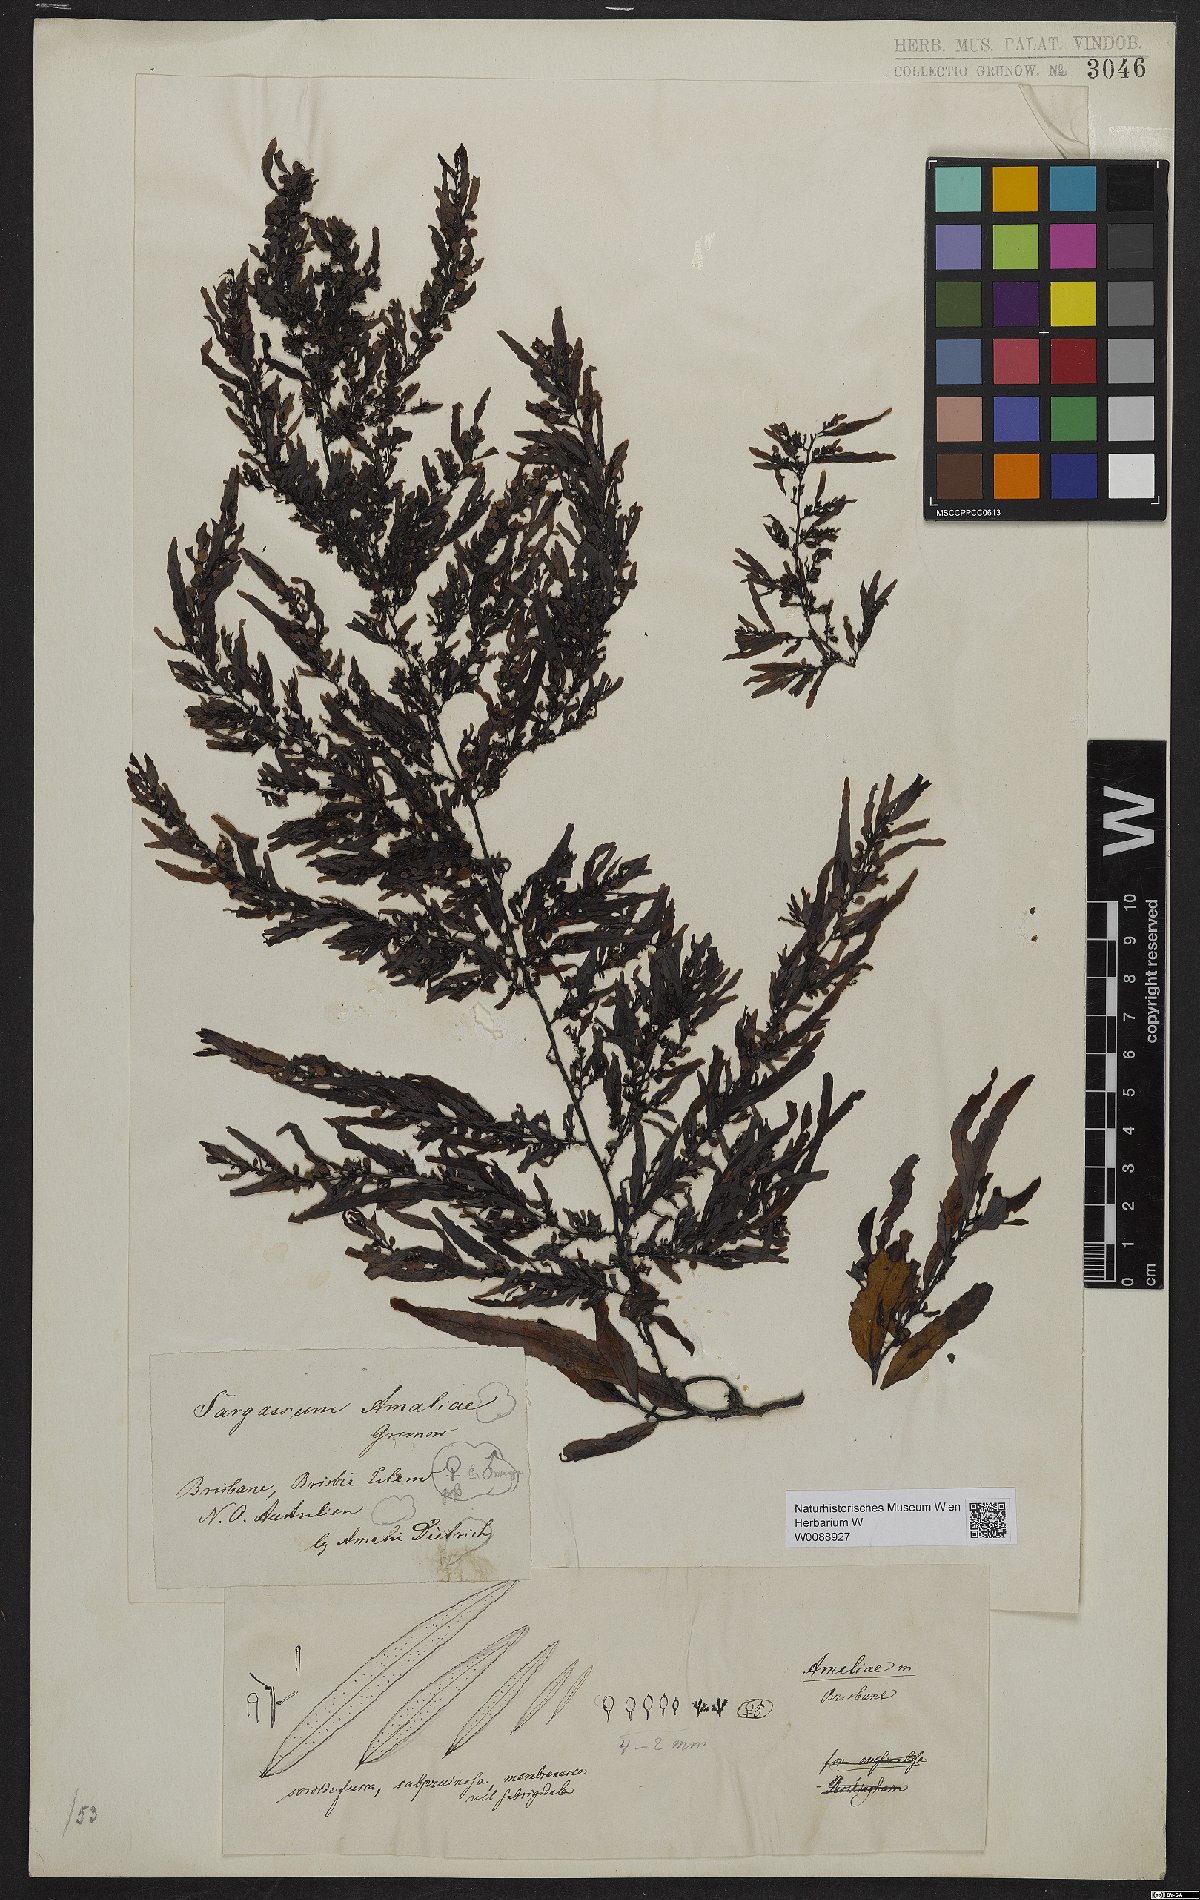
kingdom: Chromista
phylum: Ochrophyta
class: Phaeophyceae
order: Fucales
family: Sargassaceae
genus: Sargassum
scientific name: Sargassum amabile
